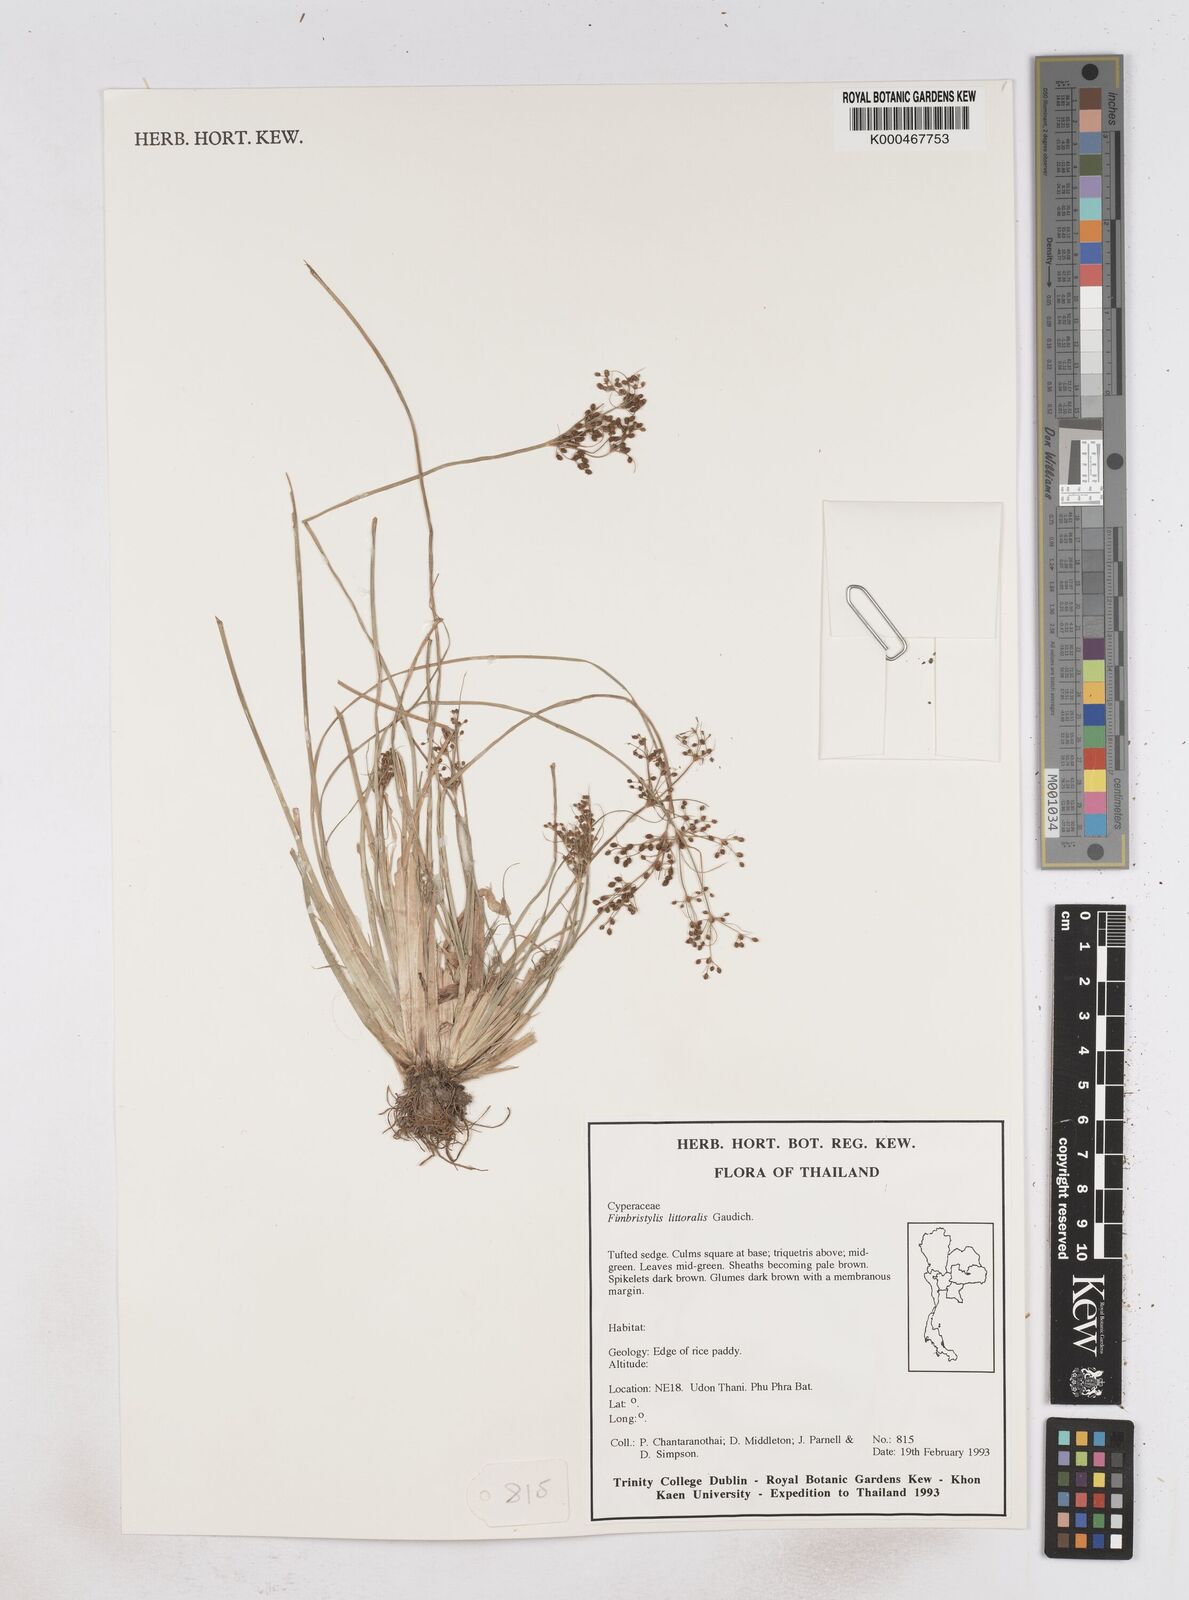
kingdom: Plantae
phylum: Tracheophyta
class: Liliopsida
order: Poales
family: Cyperaceae
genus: Fimbristylis
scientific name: Fimbristylis littoralis
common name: Fimbry
